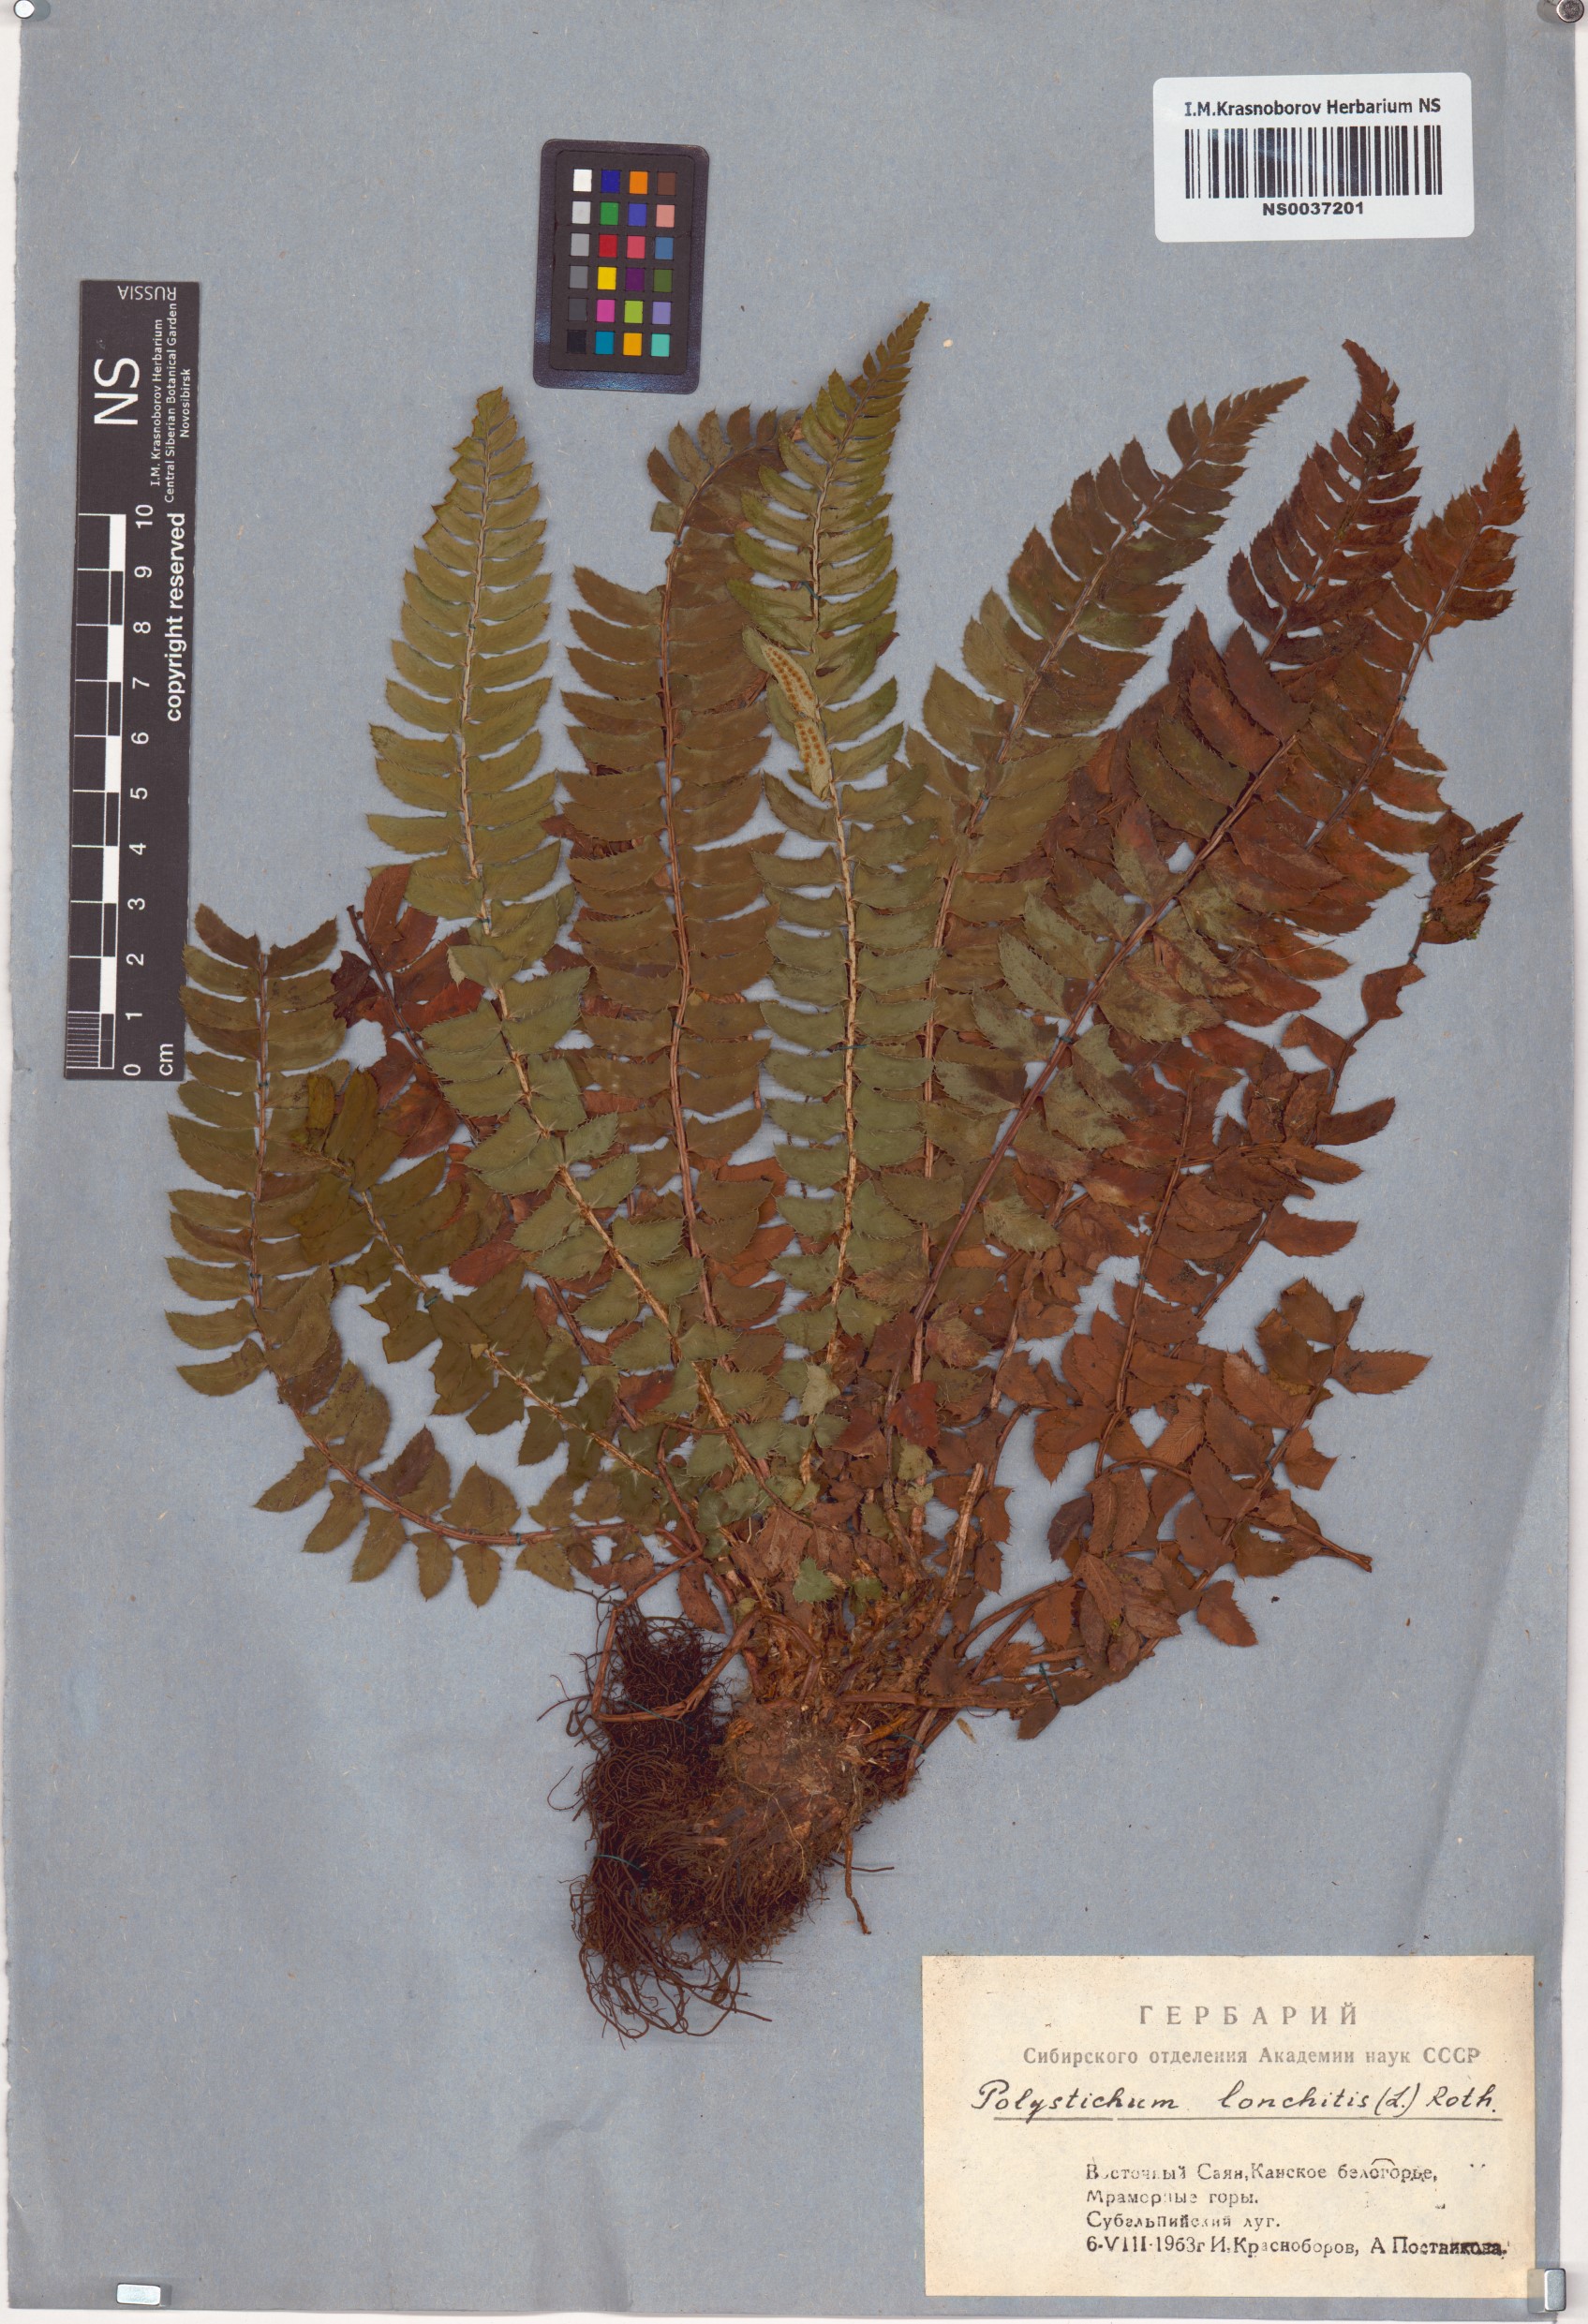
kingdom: Plantae
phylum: Tracheophyta
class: Polypodiopsida
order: Polypodiales
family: Dryopteridaceae
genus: Polystichum
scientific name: Polystichum lonchitis
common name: Holly fern
